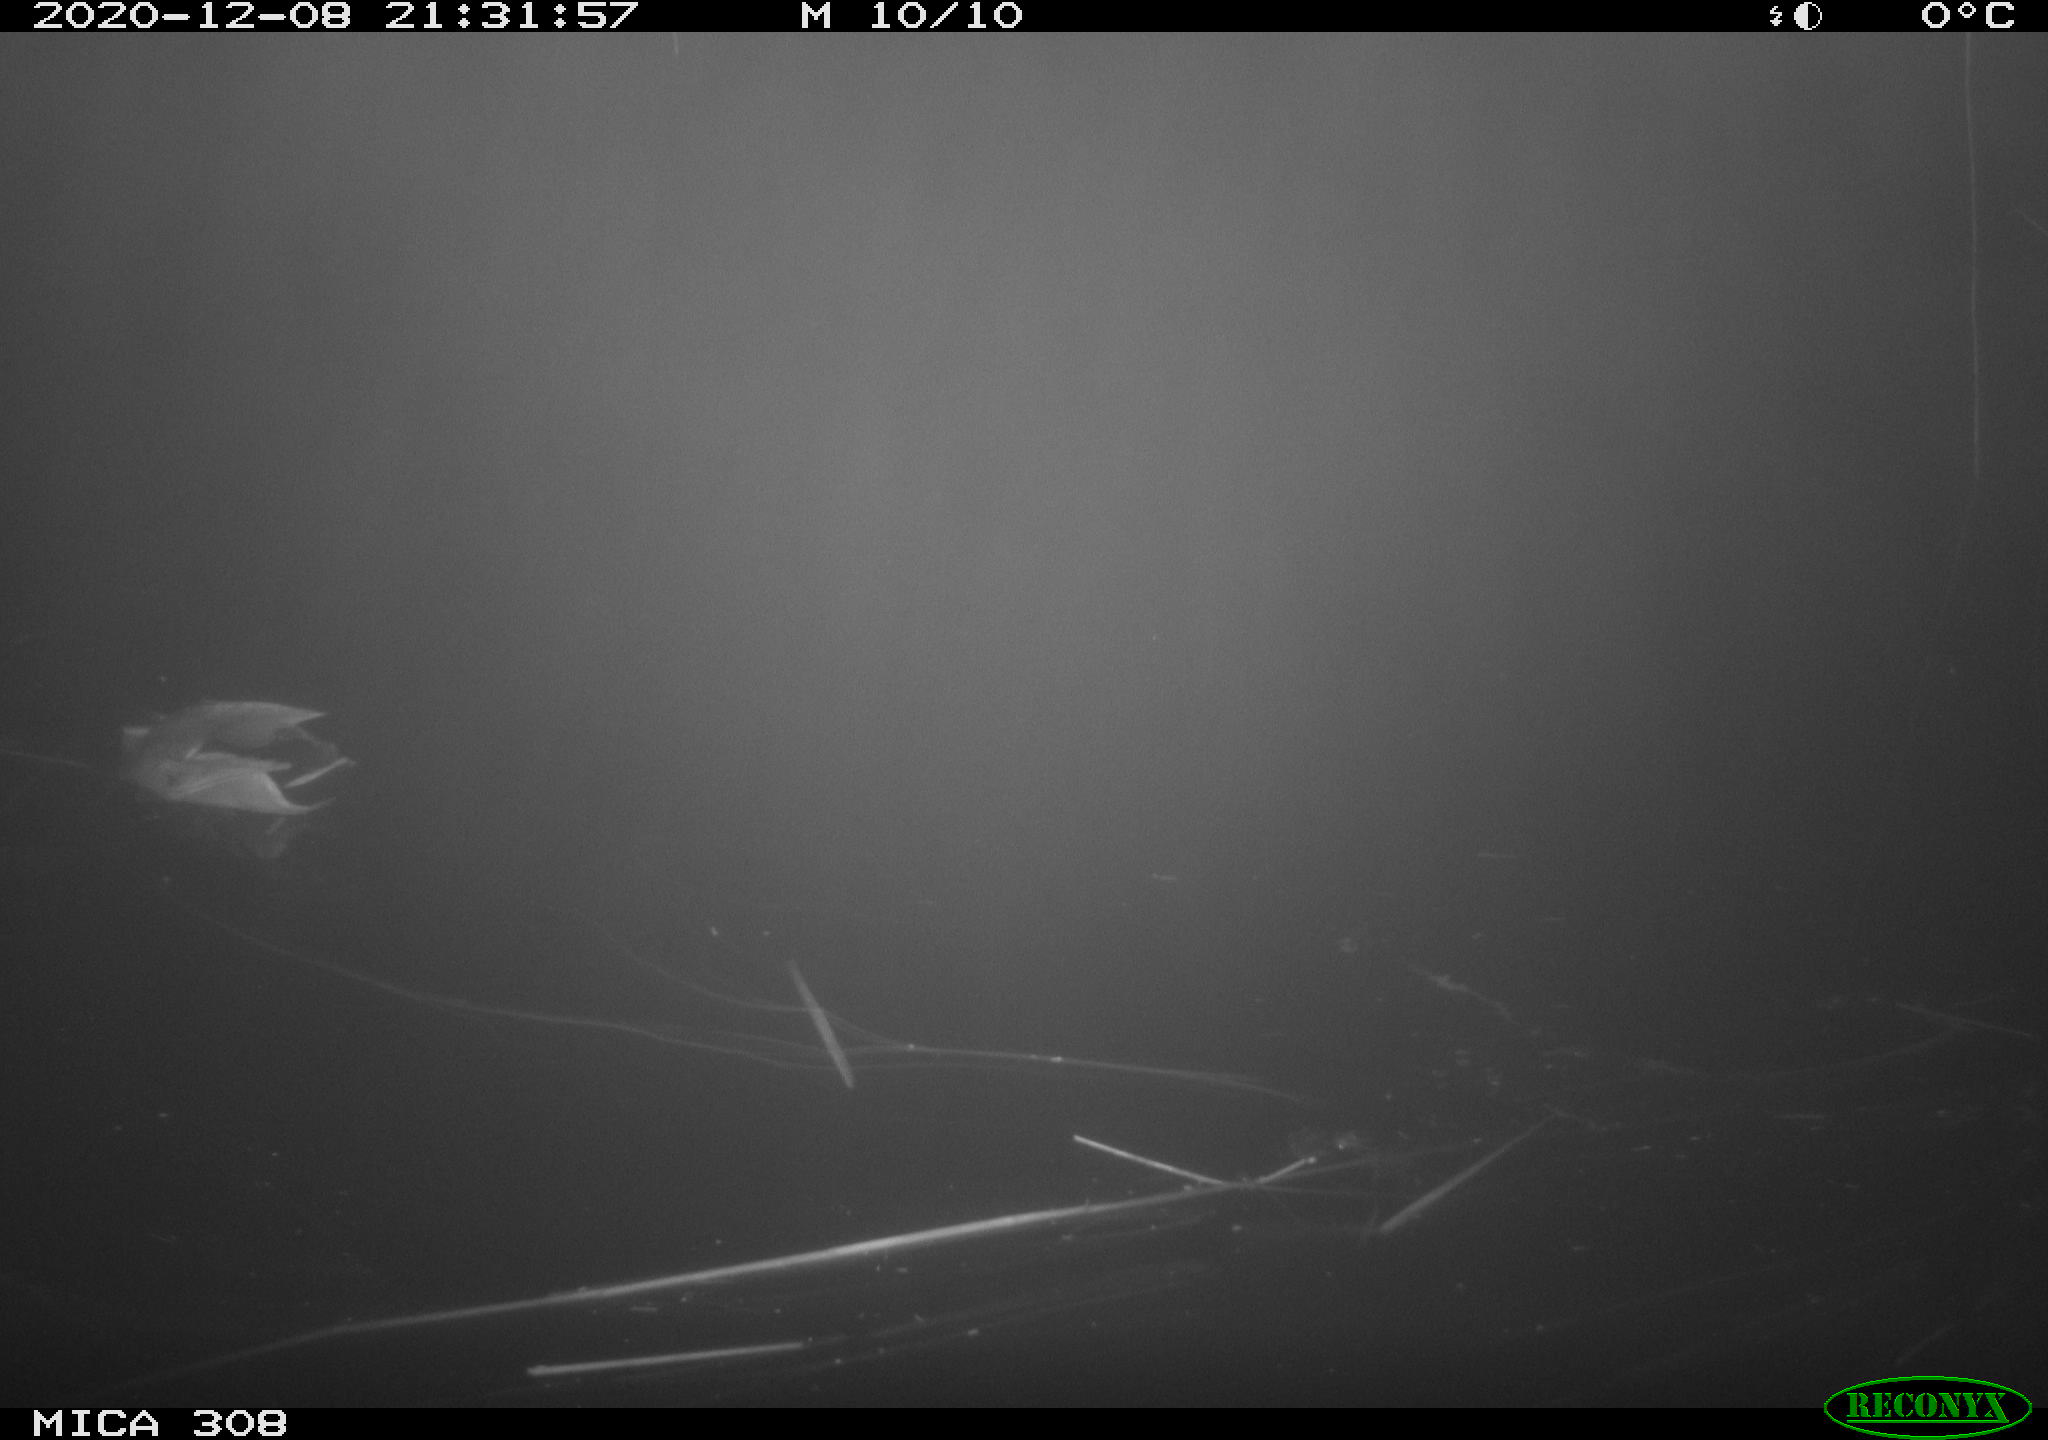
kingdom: Animalia
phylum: Chordata
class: Aves
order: Anseriformes
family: Anatidae
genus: Anas
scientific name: Anas platyrhynchos
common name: Mallard
